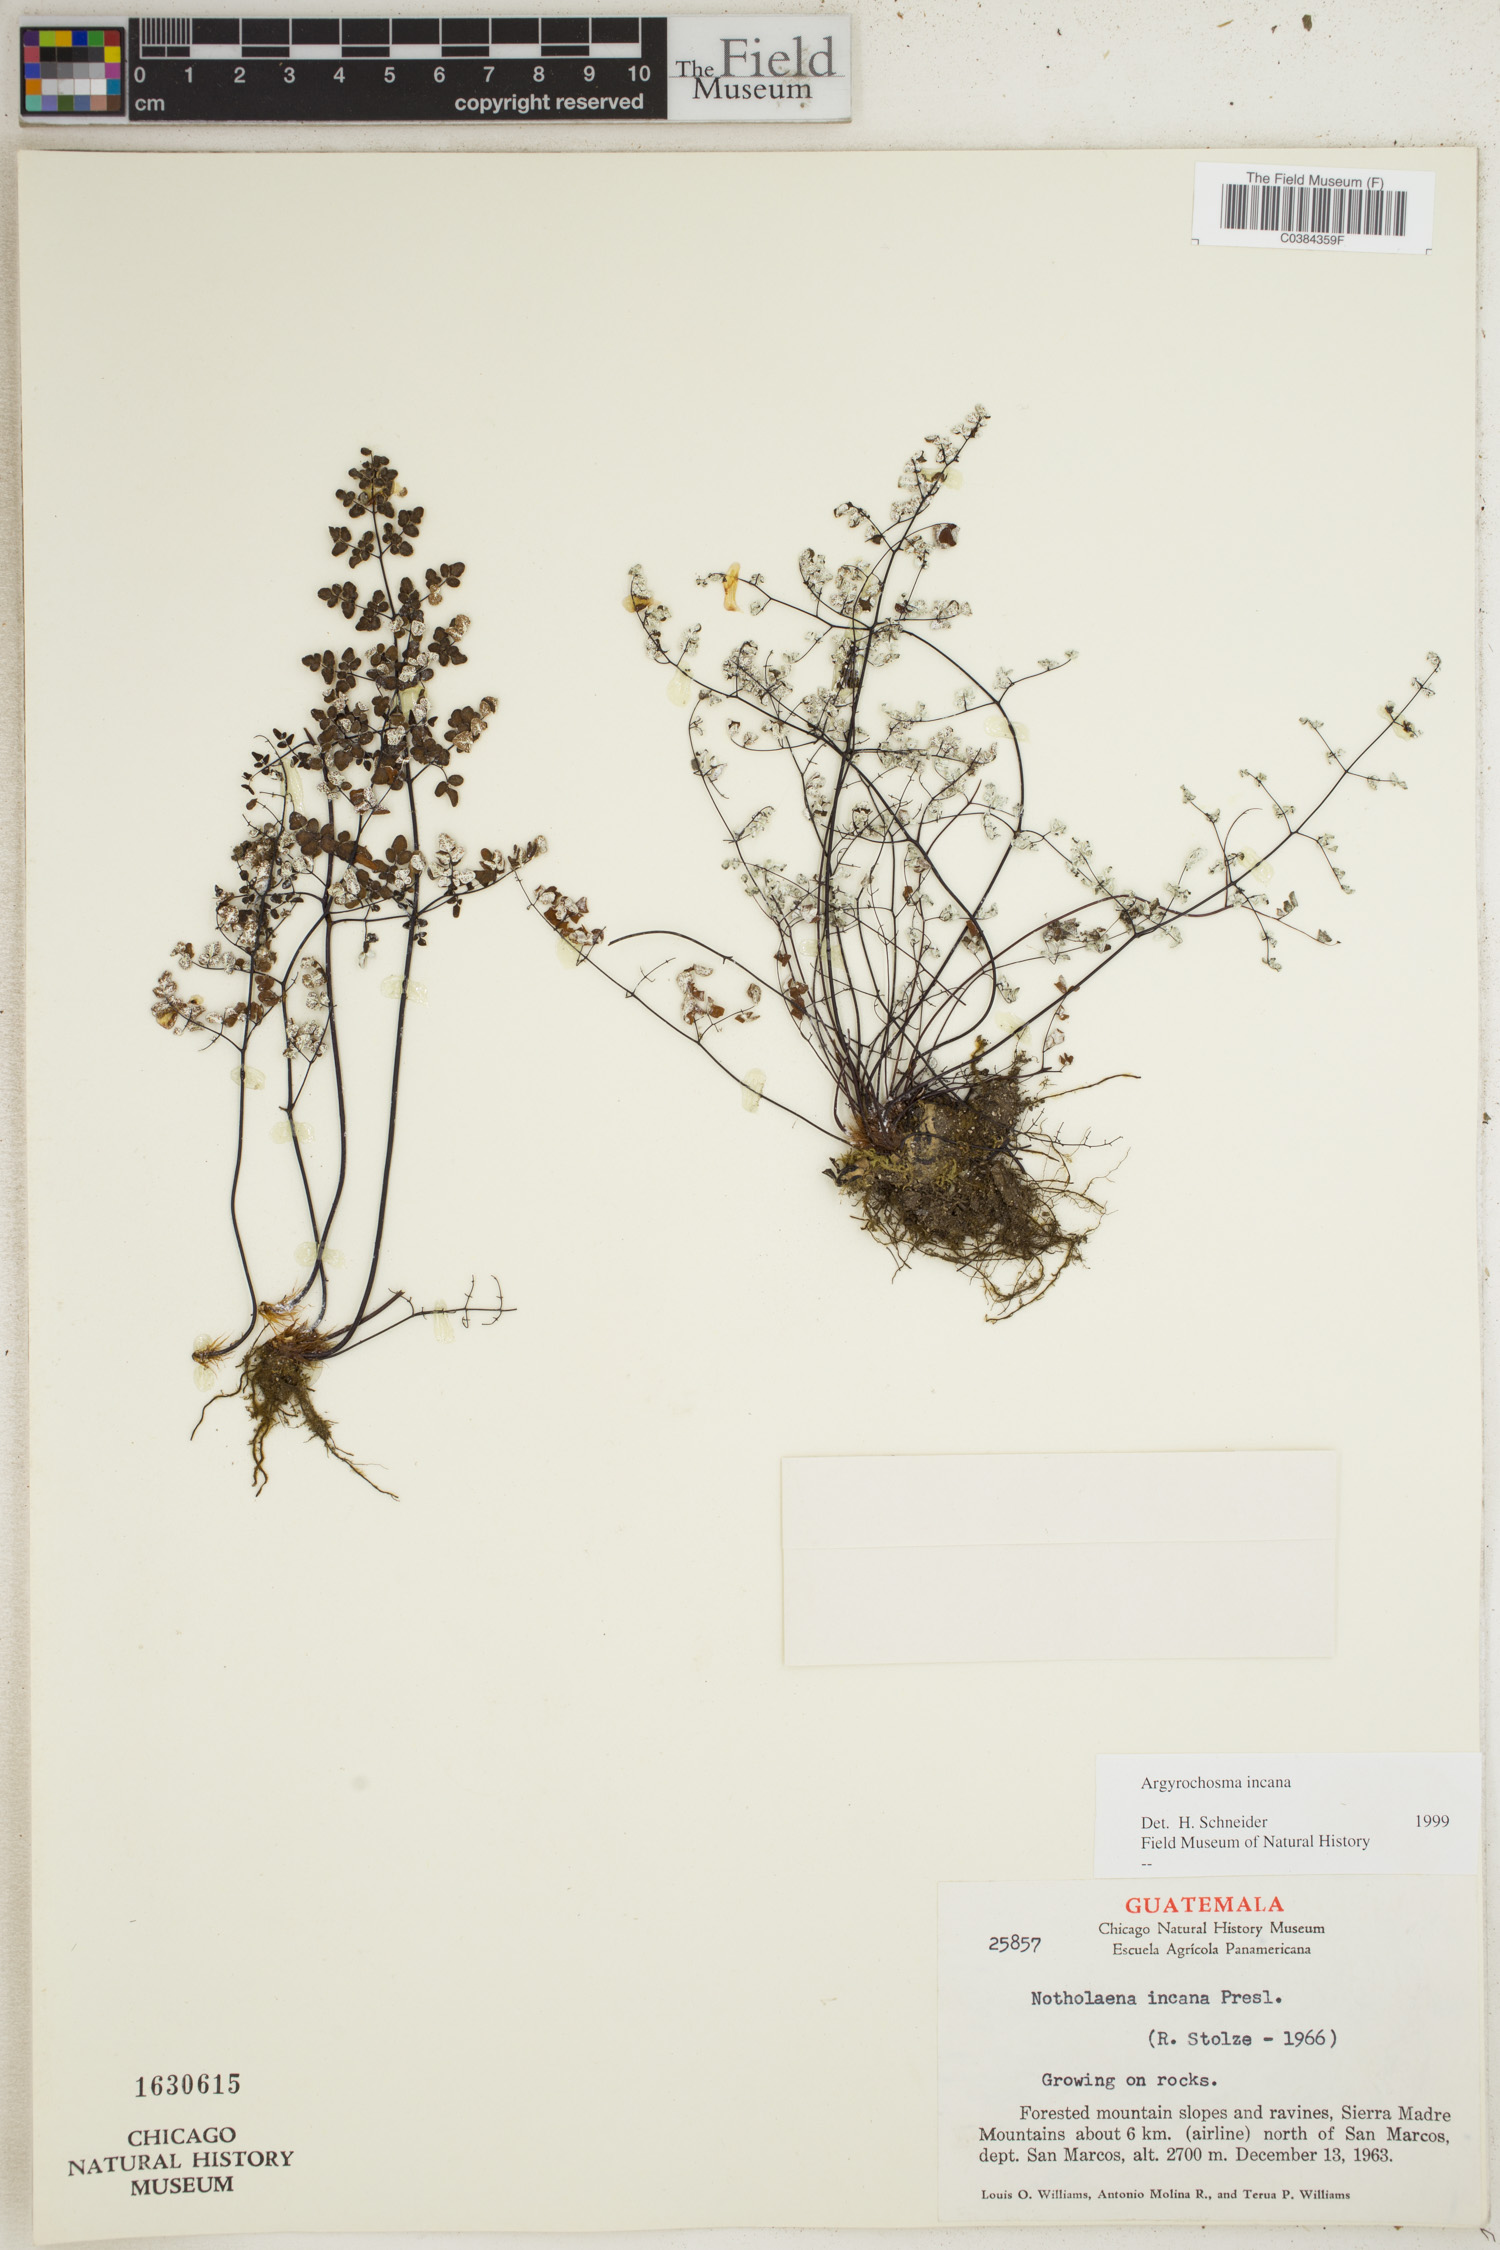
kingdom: Plantae
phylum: Tracheophyta
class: Polypodiopsida
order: Polypodiales
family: Pteridaceae
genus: Argyrochosma
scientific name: Argyrochosma incana
